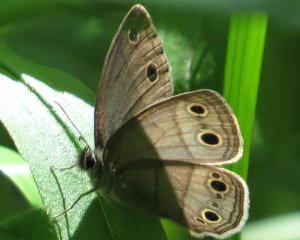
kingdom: Animalia
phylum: Arthropoda
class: Insecta
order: Lepidoptera
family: Nymphalidae
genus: Euptychia
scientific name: Euptychia cymela
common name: Little Wood Satyr
